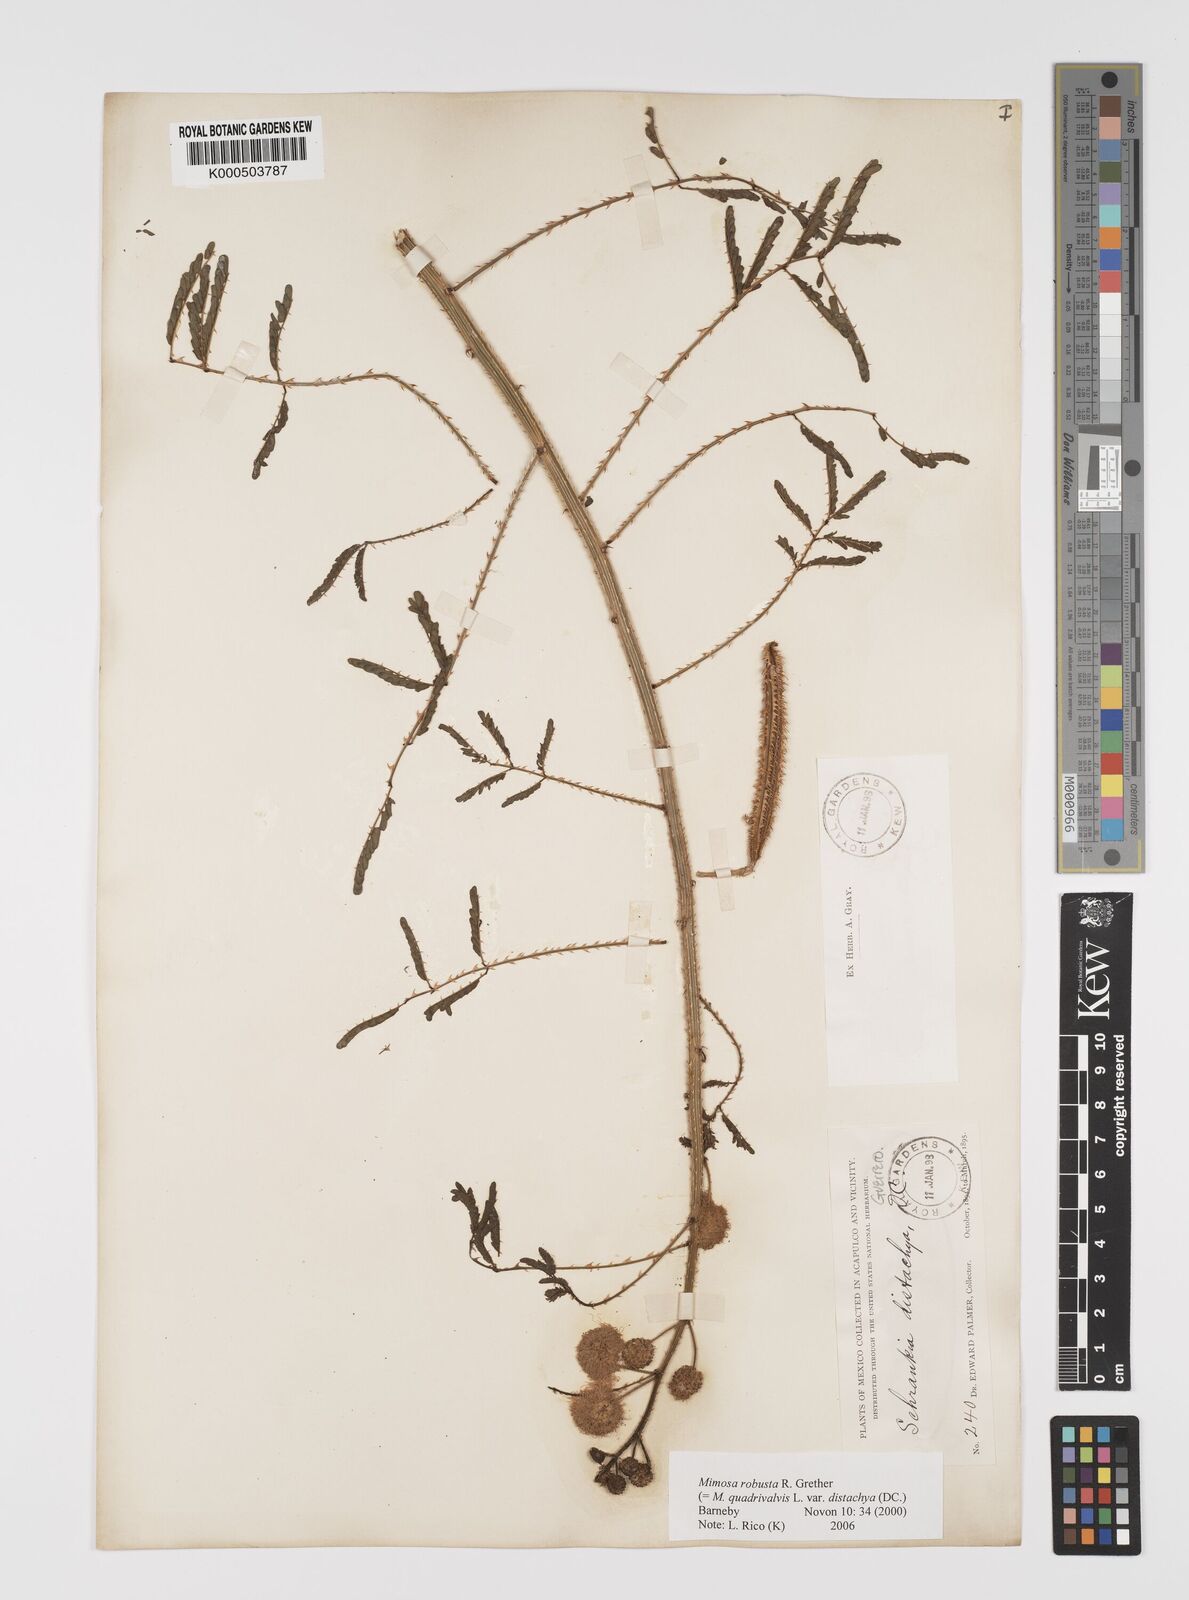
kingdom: Plantae
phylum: Tracheophyta
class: Magnoliopsida
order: Fabales
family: Fabaceae
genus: Mimosa
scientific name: Mimosa robusta
